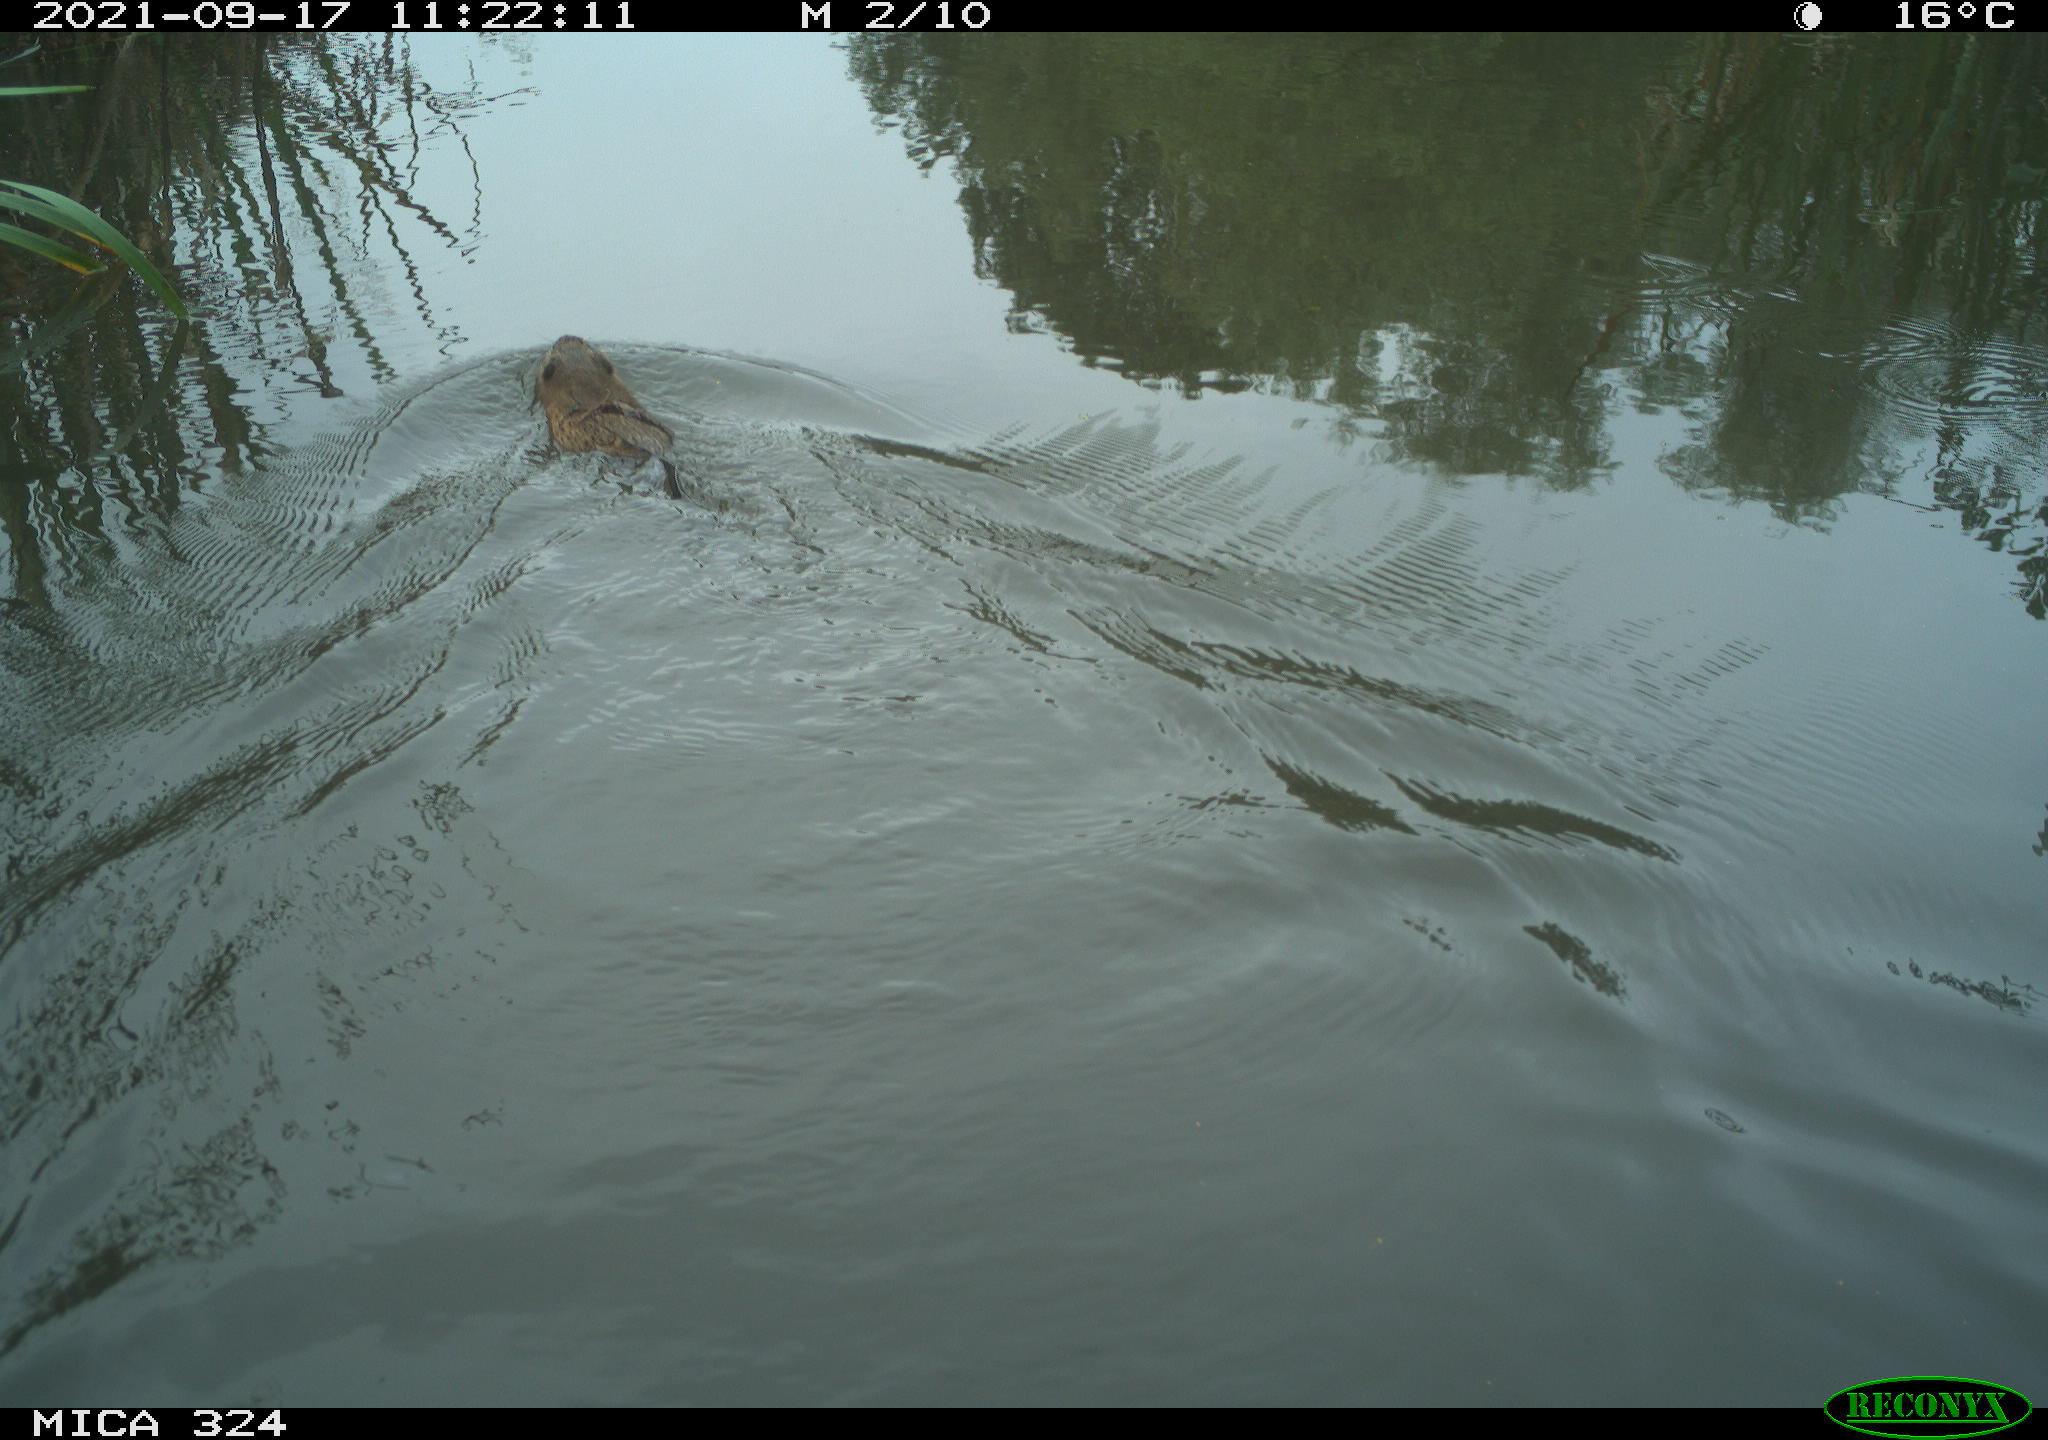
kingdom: Animalia
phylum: Chordata
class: Mammalia
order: Rodentia
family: Cricetidae
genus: Ondatra
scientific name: Ondatra zibethicus
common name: Muskrat
